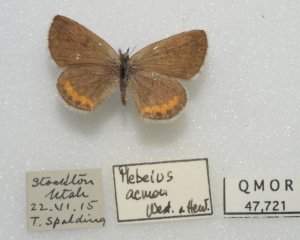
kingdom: Animalia
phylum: Arthropoda
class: Insecta
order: Lepidoptera
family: Lycaenidae
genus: Plebejus
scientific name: Plebejus acmon
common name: Acmon Blue
